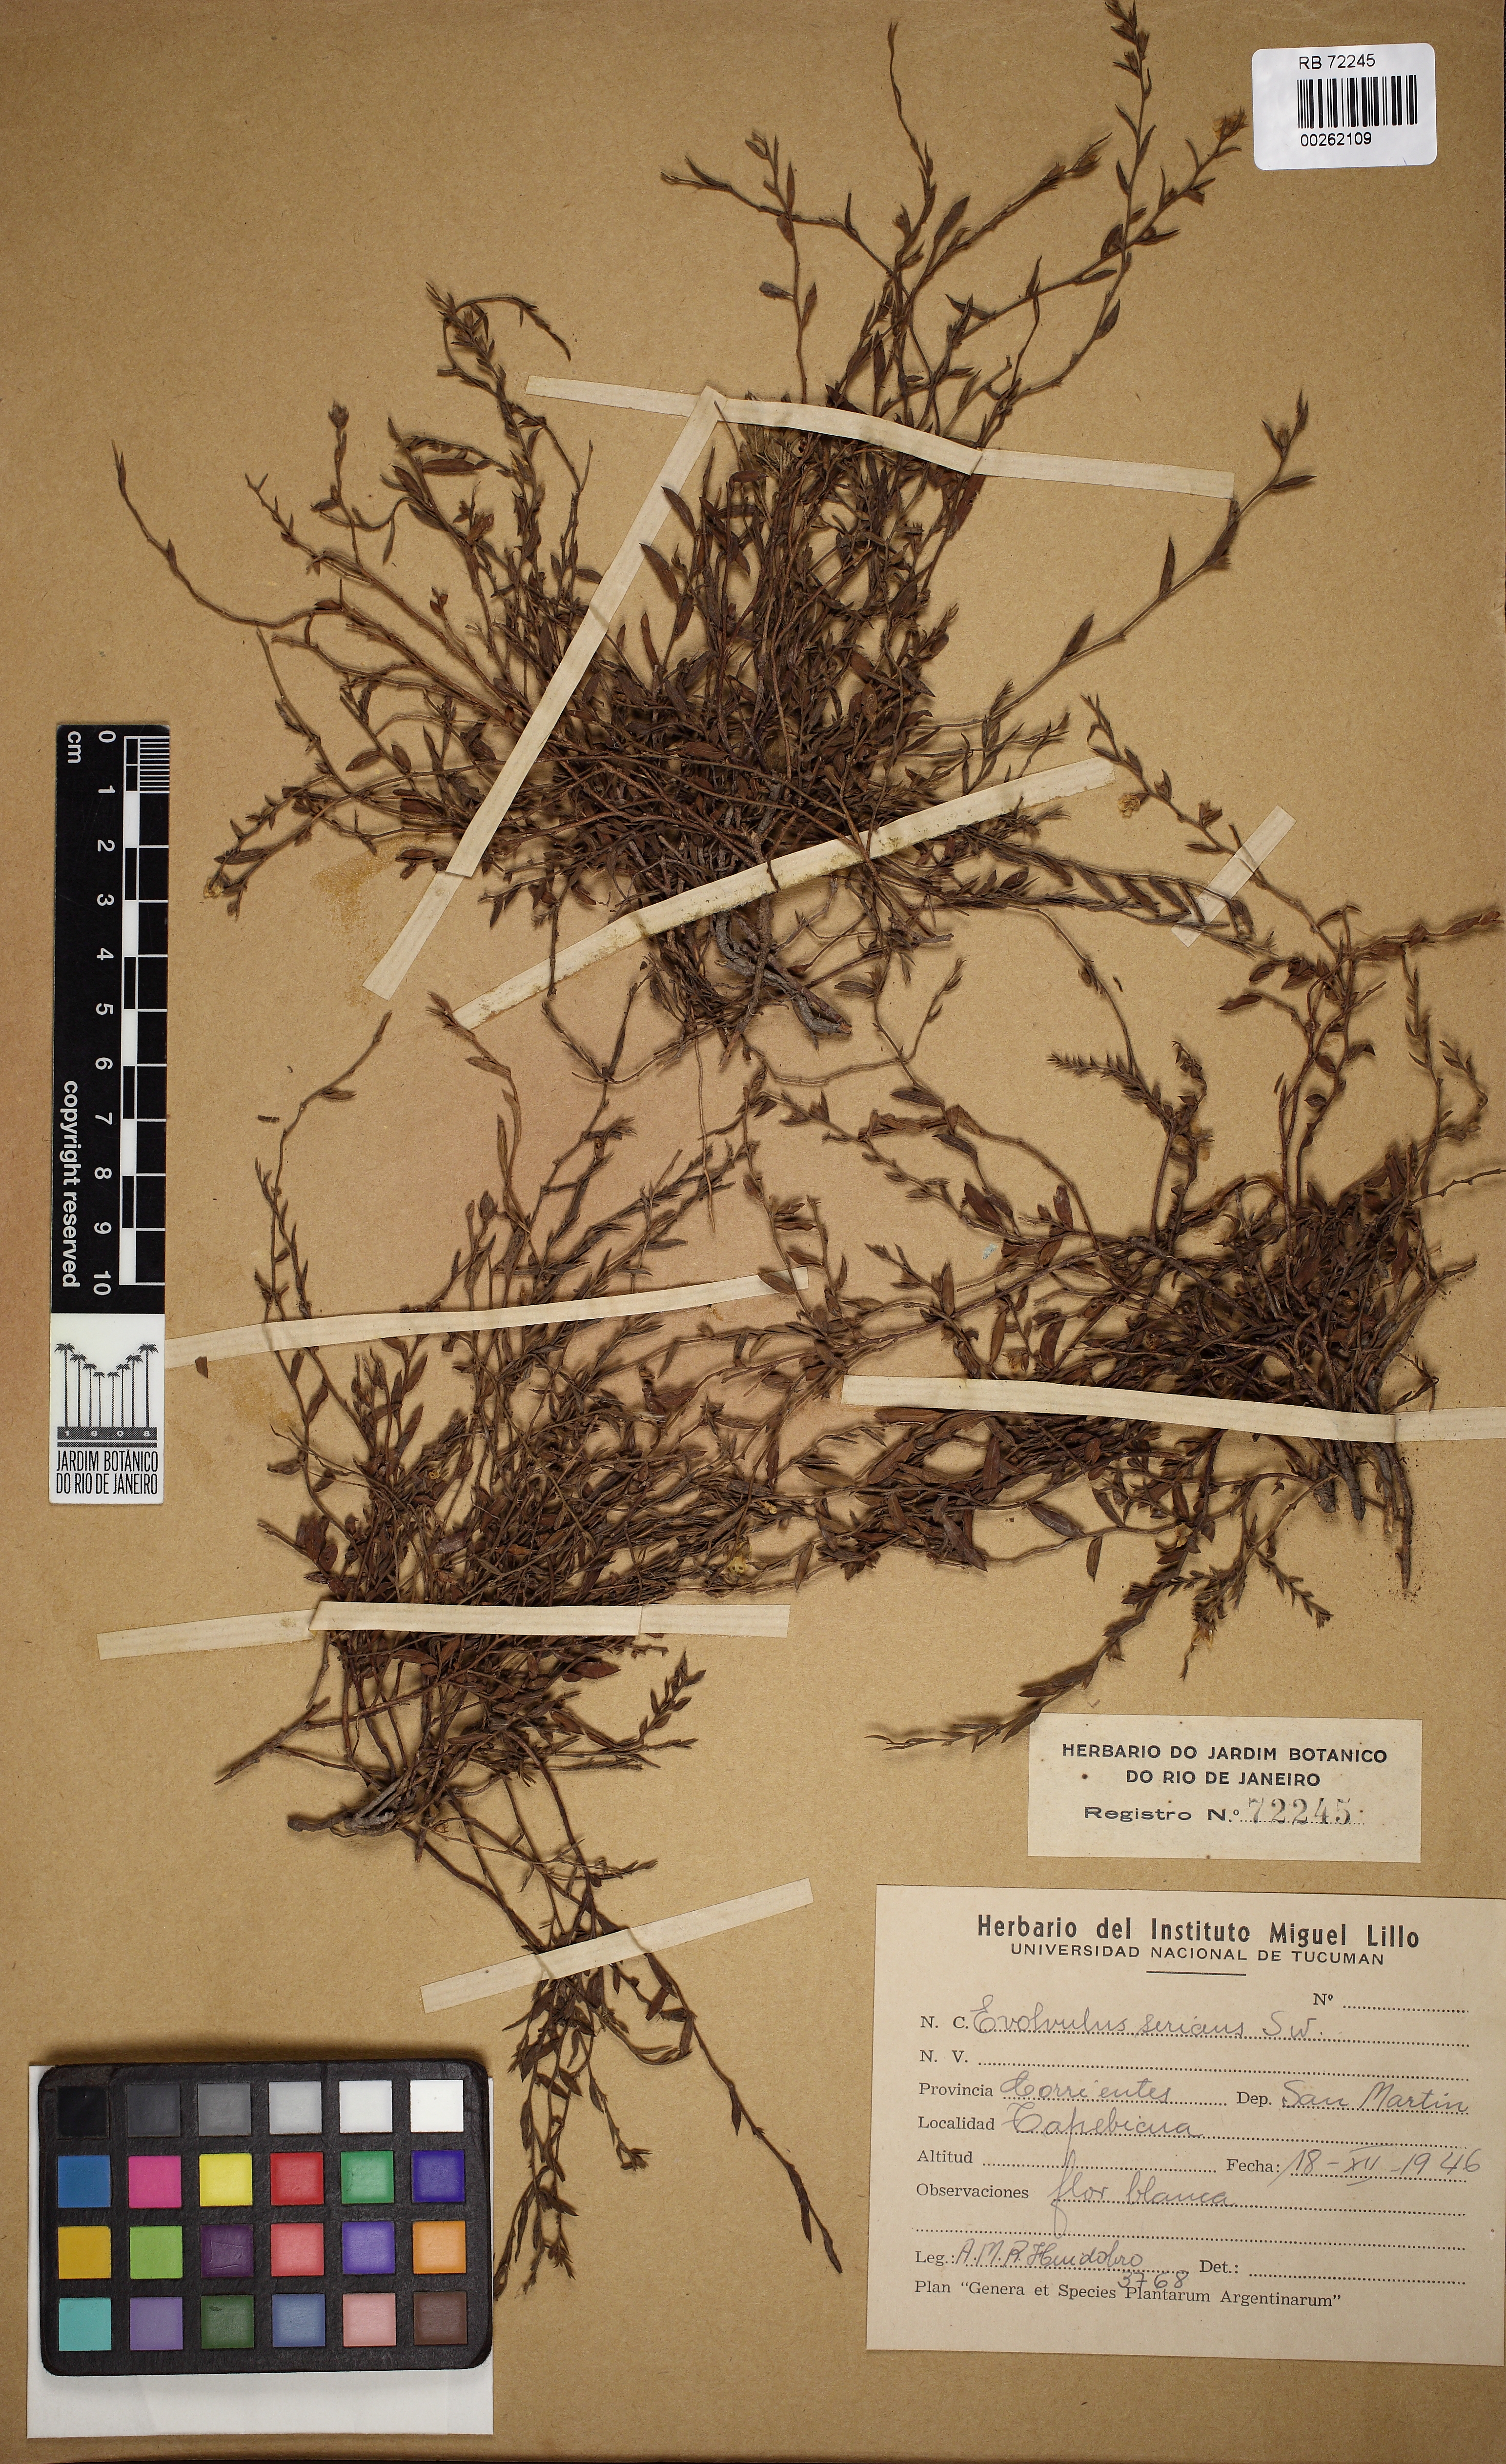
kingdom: Plantae
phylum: Tracheophyta
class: Magnoliopsida
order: Solanales
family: Convolvulaceae
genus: Evolvulus
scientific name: Evolvulus sericeus
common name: Blue dots
